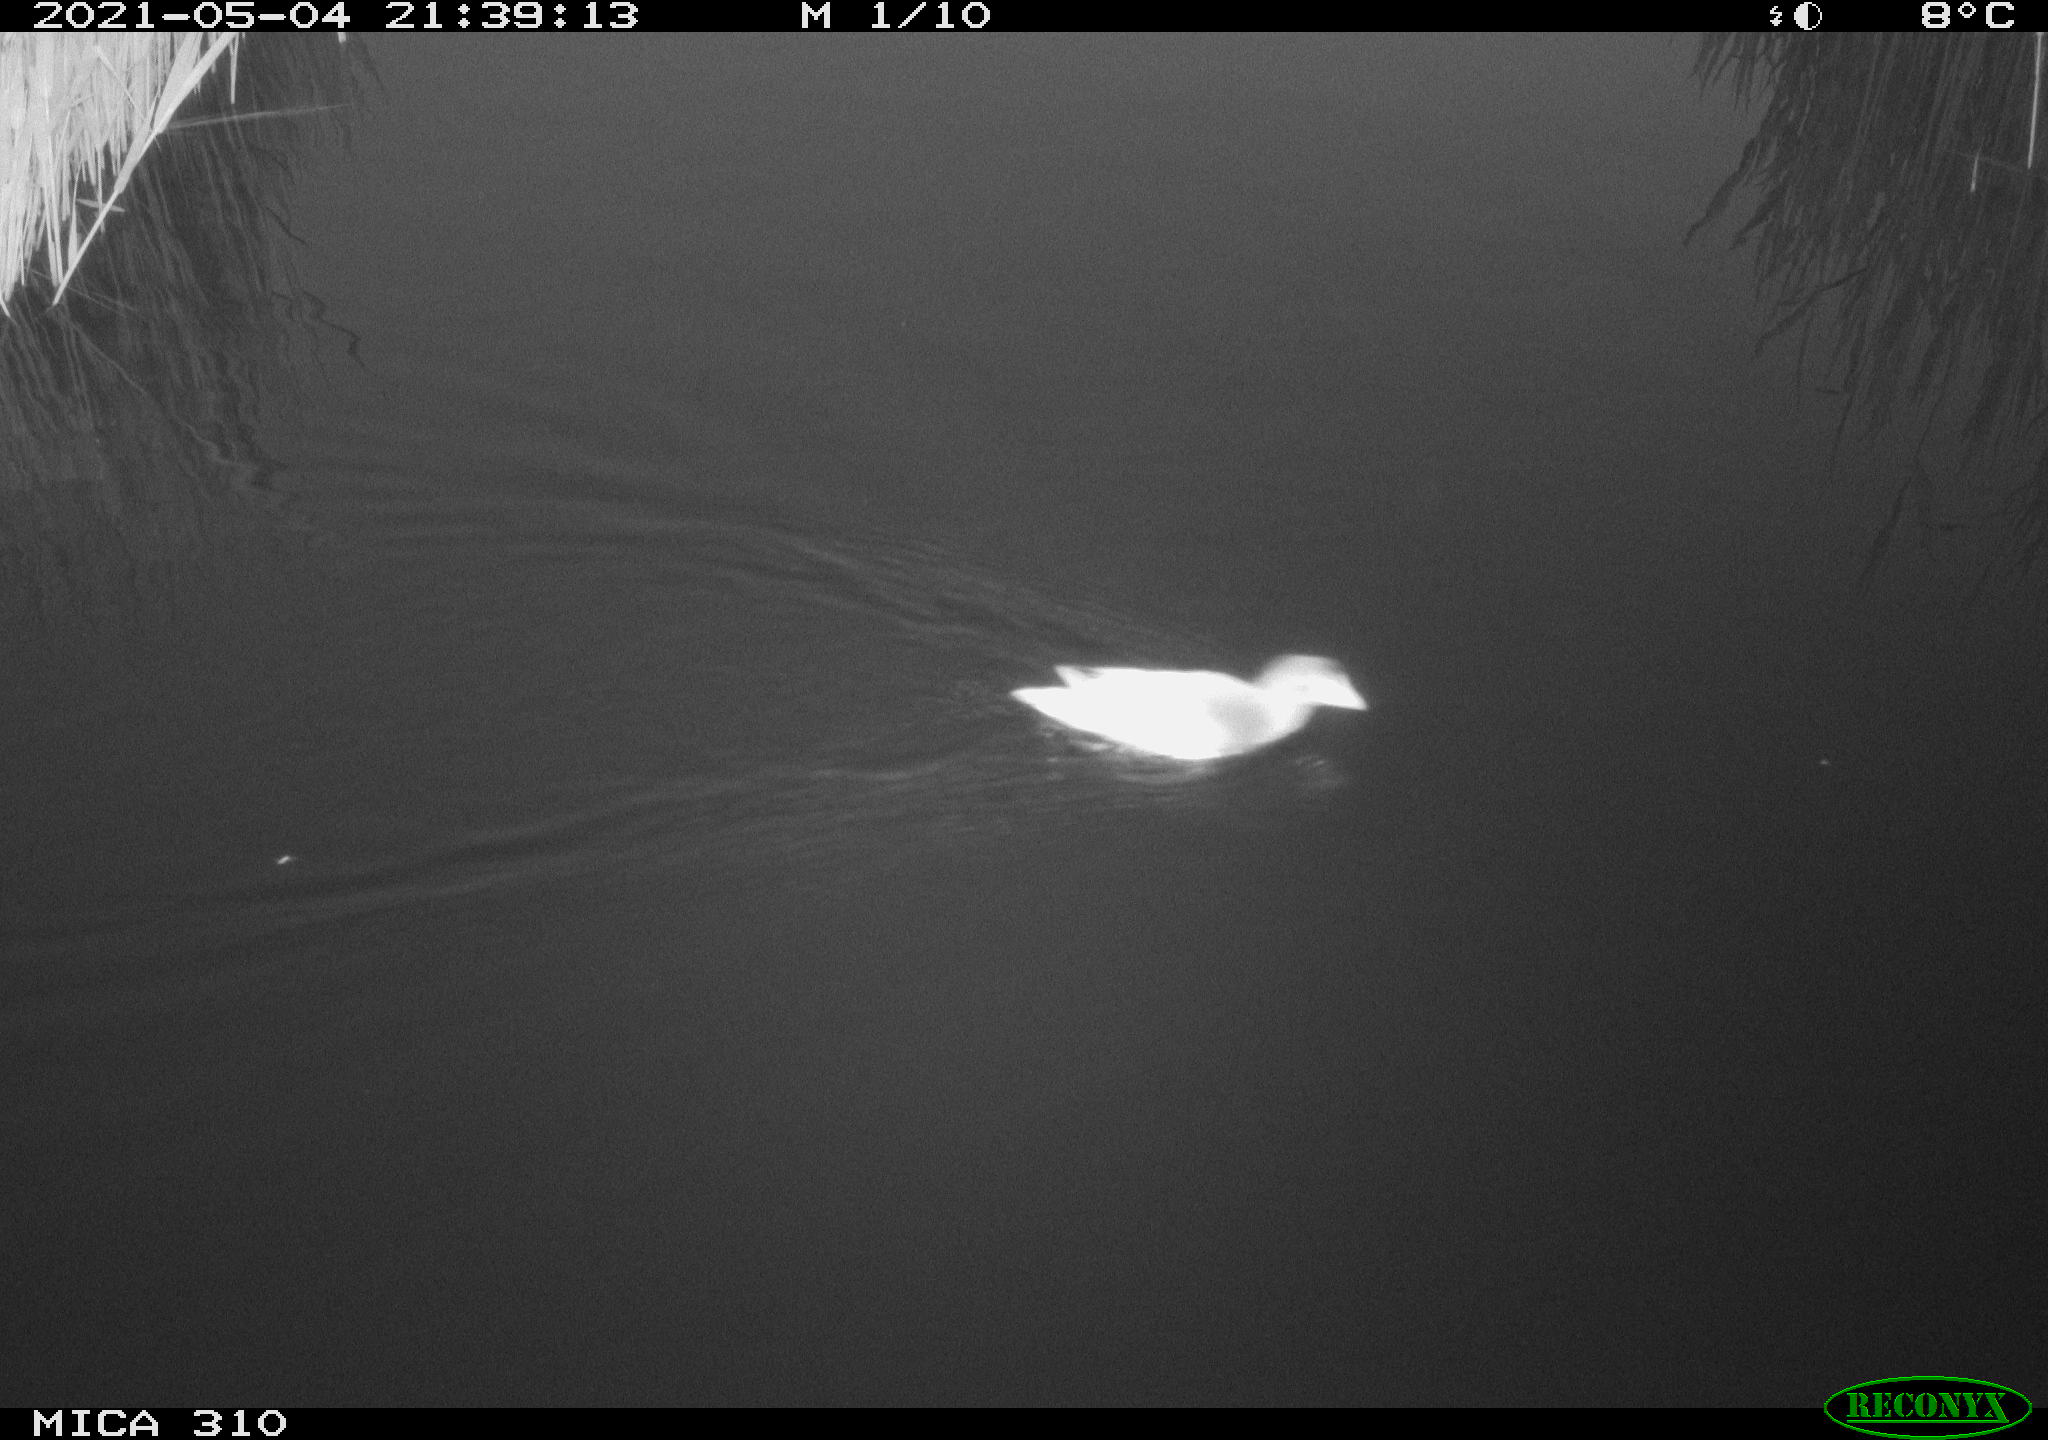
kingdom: Animalia
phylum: Chordata
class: Aves
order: Gruiformes
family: Rallidae
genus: Gallinula
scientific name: Gallinula chloropus
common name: Common moorhen
